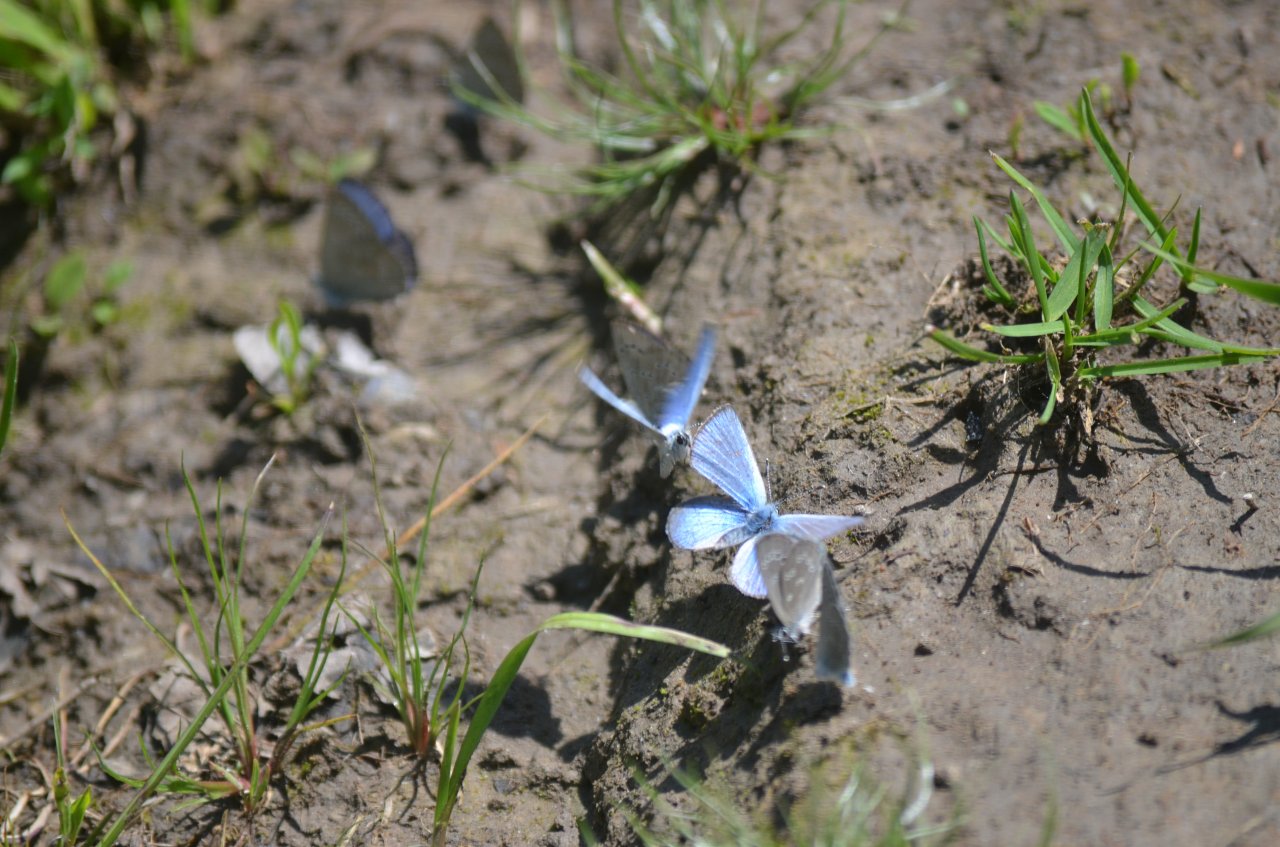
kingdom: Animalia
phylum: Arthropoda
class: Insecta
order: Lepidoptera
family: Lycaenidae
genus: Glaucopsyche
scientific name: Glaucopsyche lygdamus
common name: Silvery Blue
